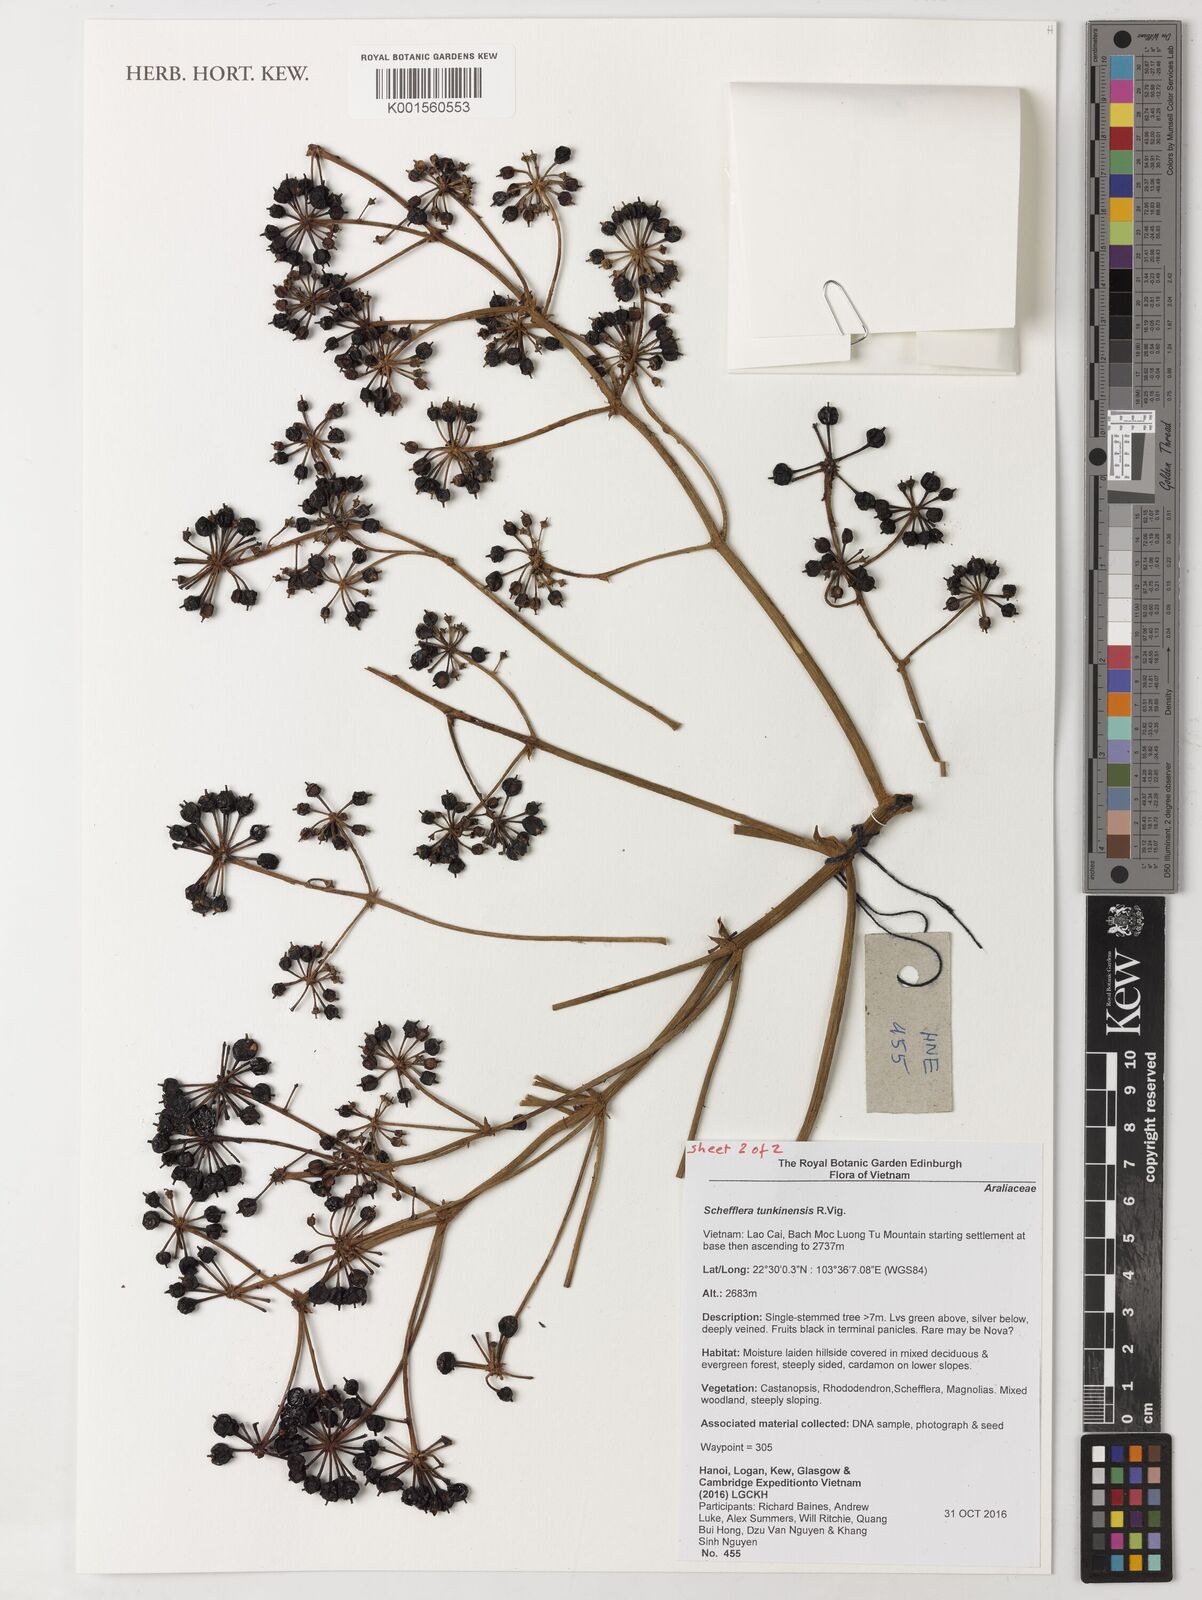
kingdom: Plantae
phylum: Tracheophyta
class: Magnoliopsida
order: Apiales
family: Araliaceae
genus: Heptapleurum
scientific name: Heptapleurum tunkinense
